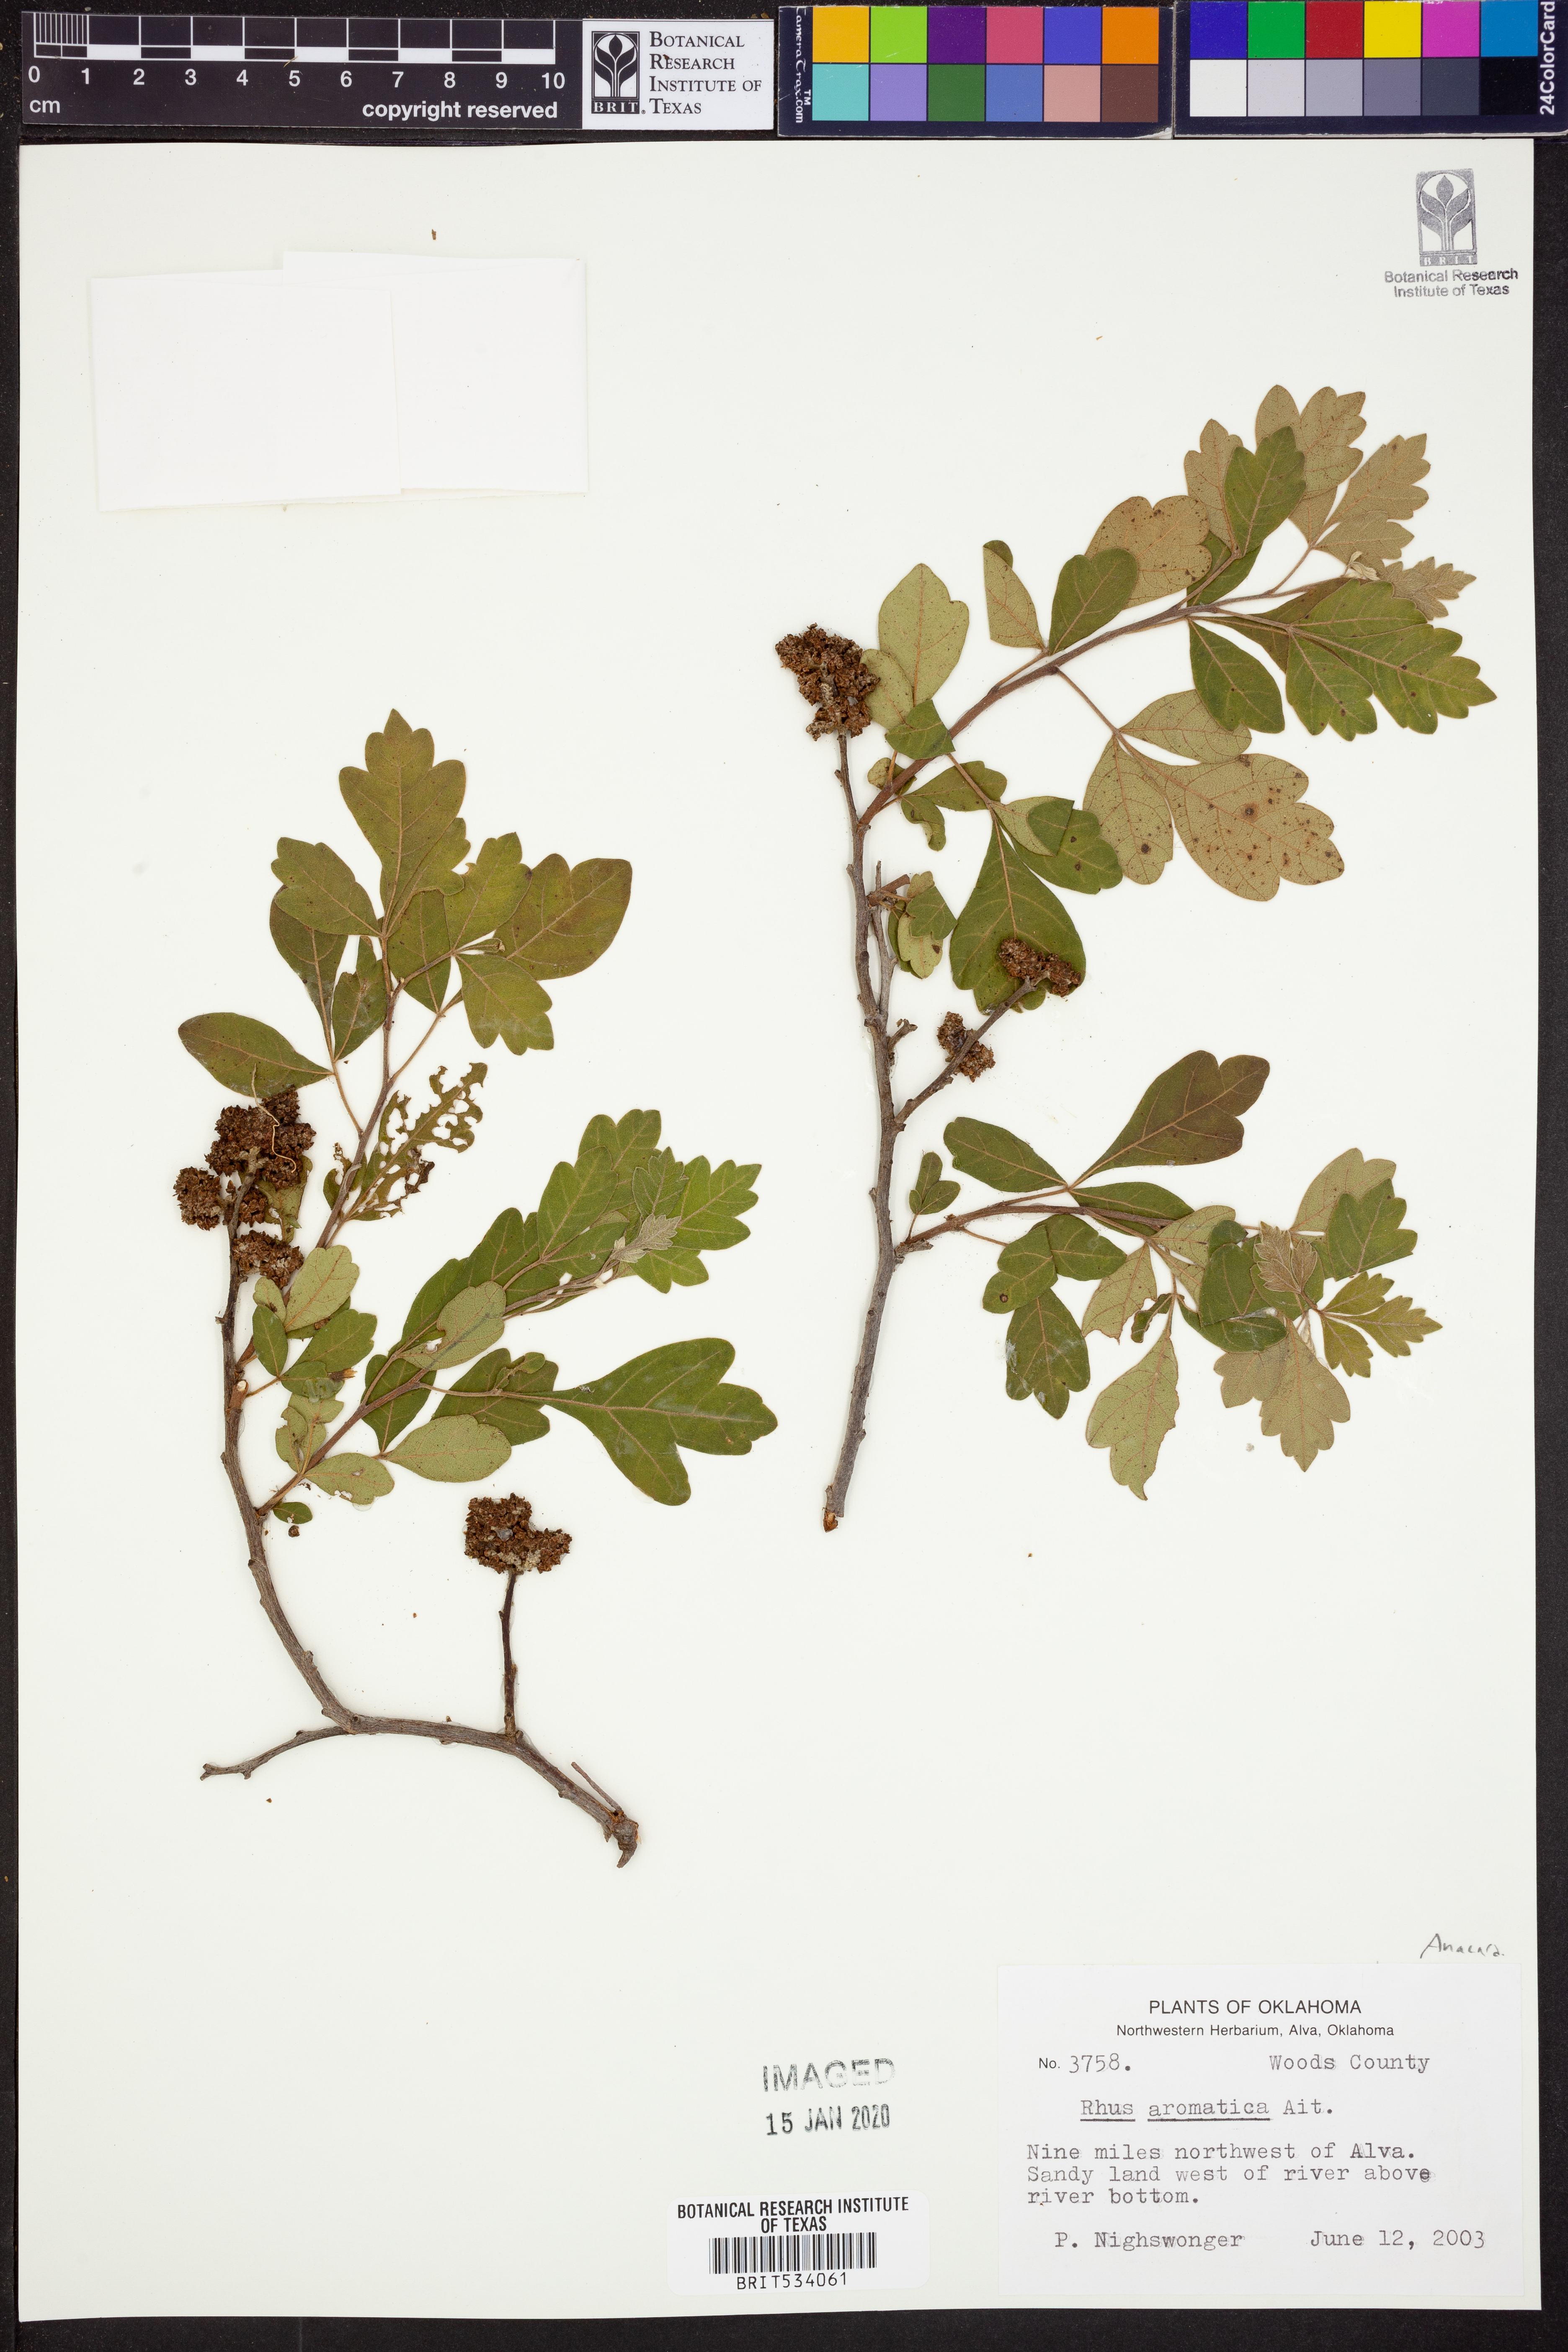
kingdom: Plantae
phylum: Tracheophyta
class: Magnoliopsida
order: Sapindales
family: Anacardiaceae
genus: Rhus
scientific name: Rhus aromatica
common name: Aromatic sumac
